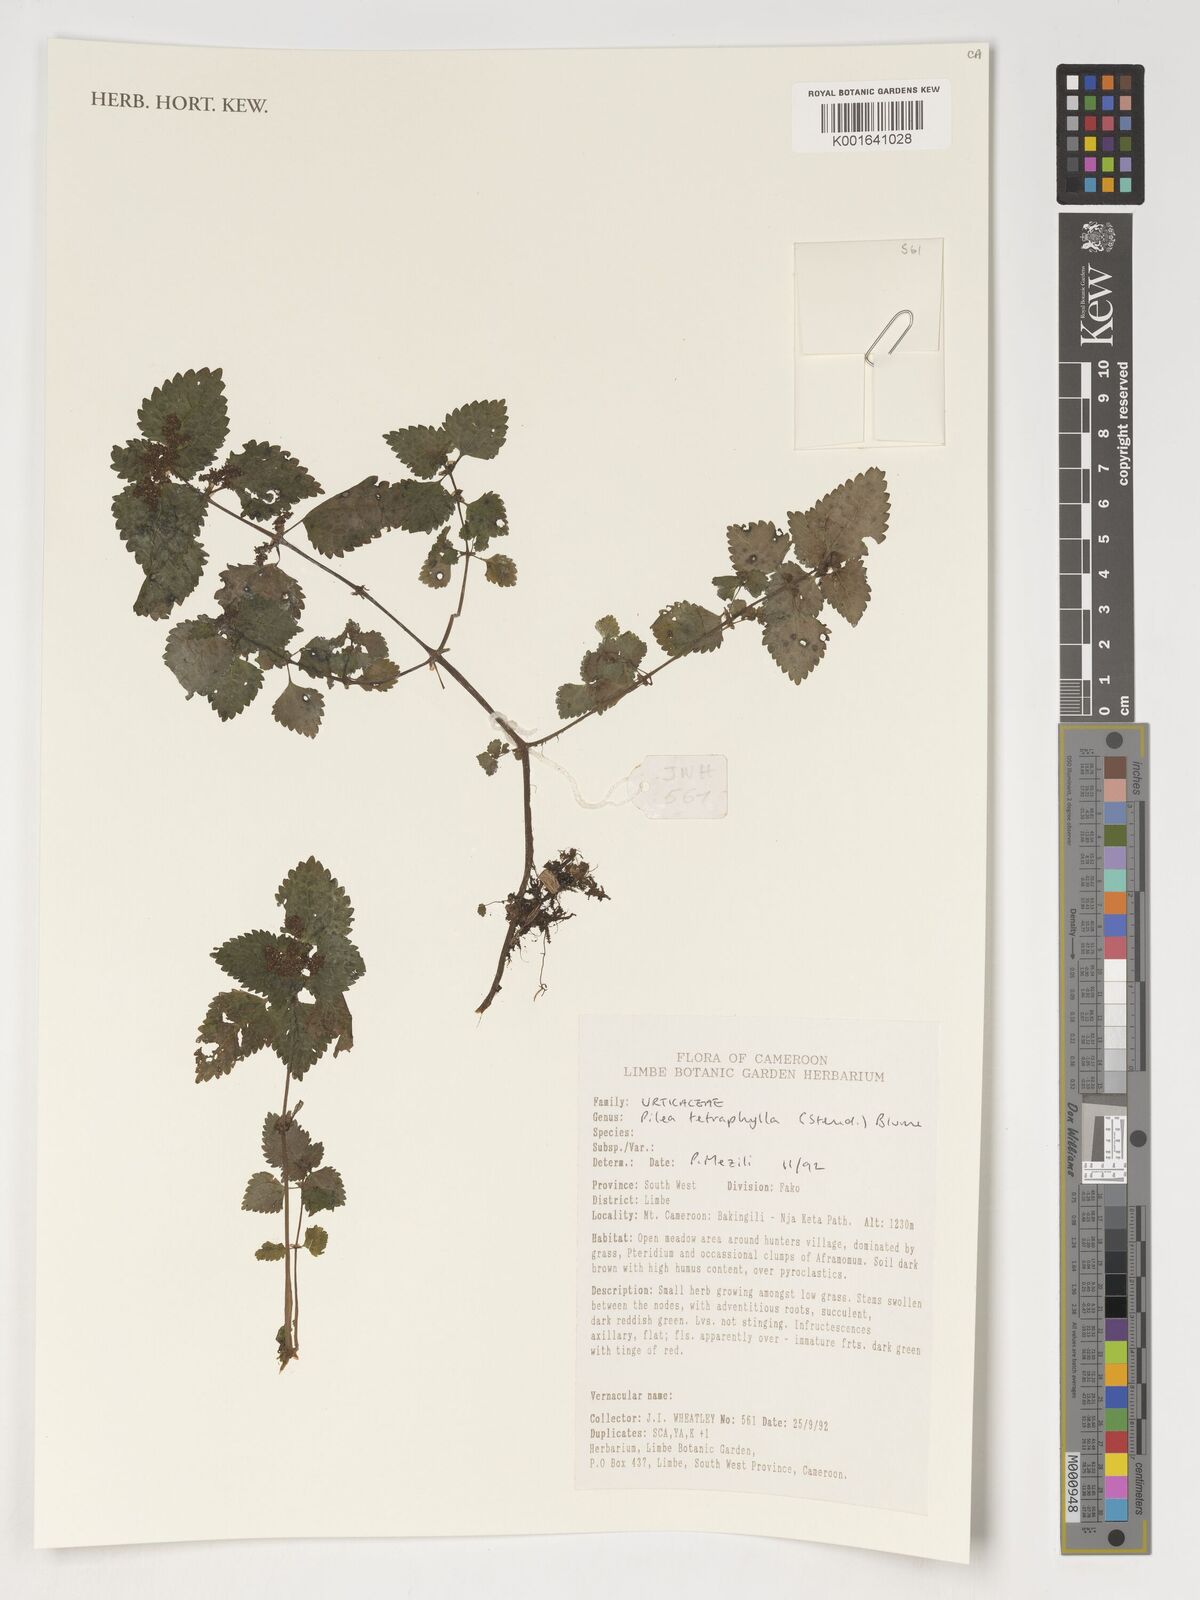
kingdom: Plantae
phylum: Tracheophyta
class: Magnoliopsida
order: Rosales
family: Urticaceae
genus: Pilea
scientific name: Pilea tetraphylla
